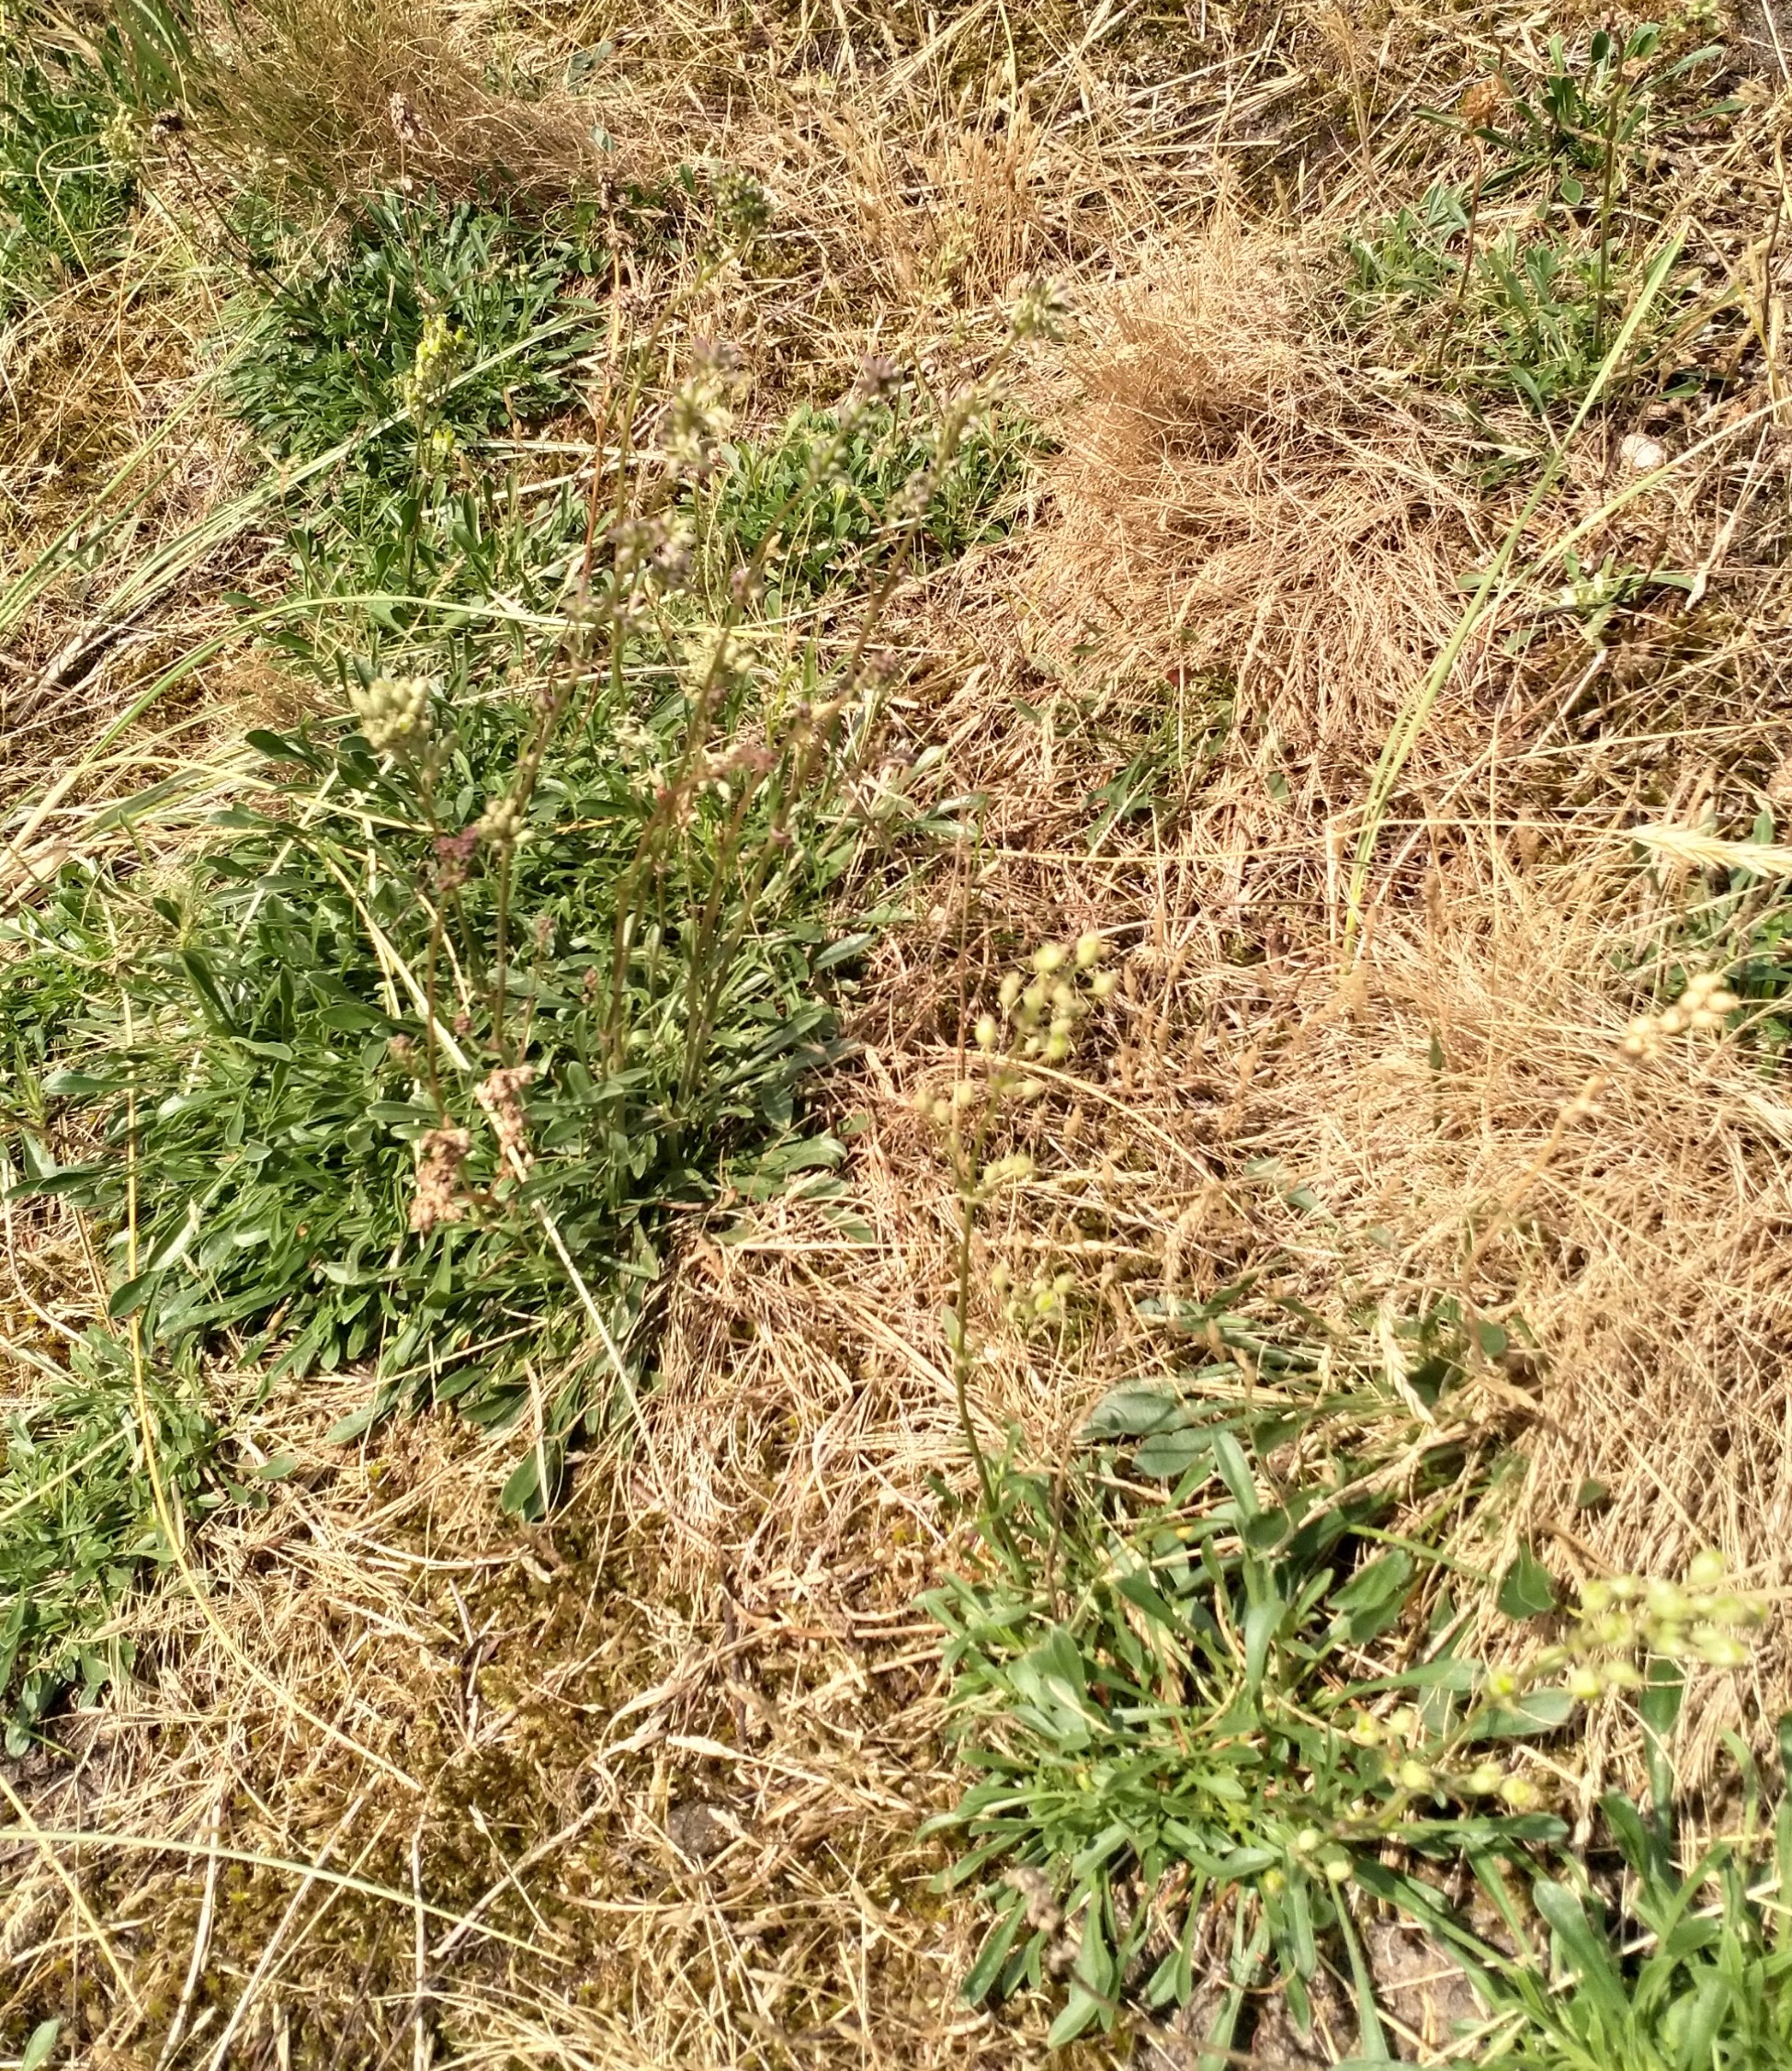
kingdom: Plantae
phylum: Tracheophyta
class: Magnoliopsida
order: Caryophyllales
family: Caryophyllaceae
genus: Silene
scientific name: Silene otites
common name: Klit-limurt
